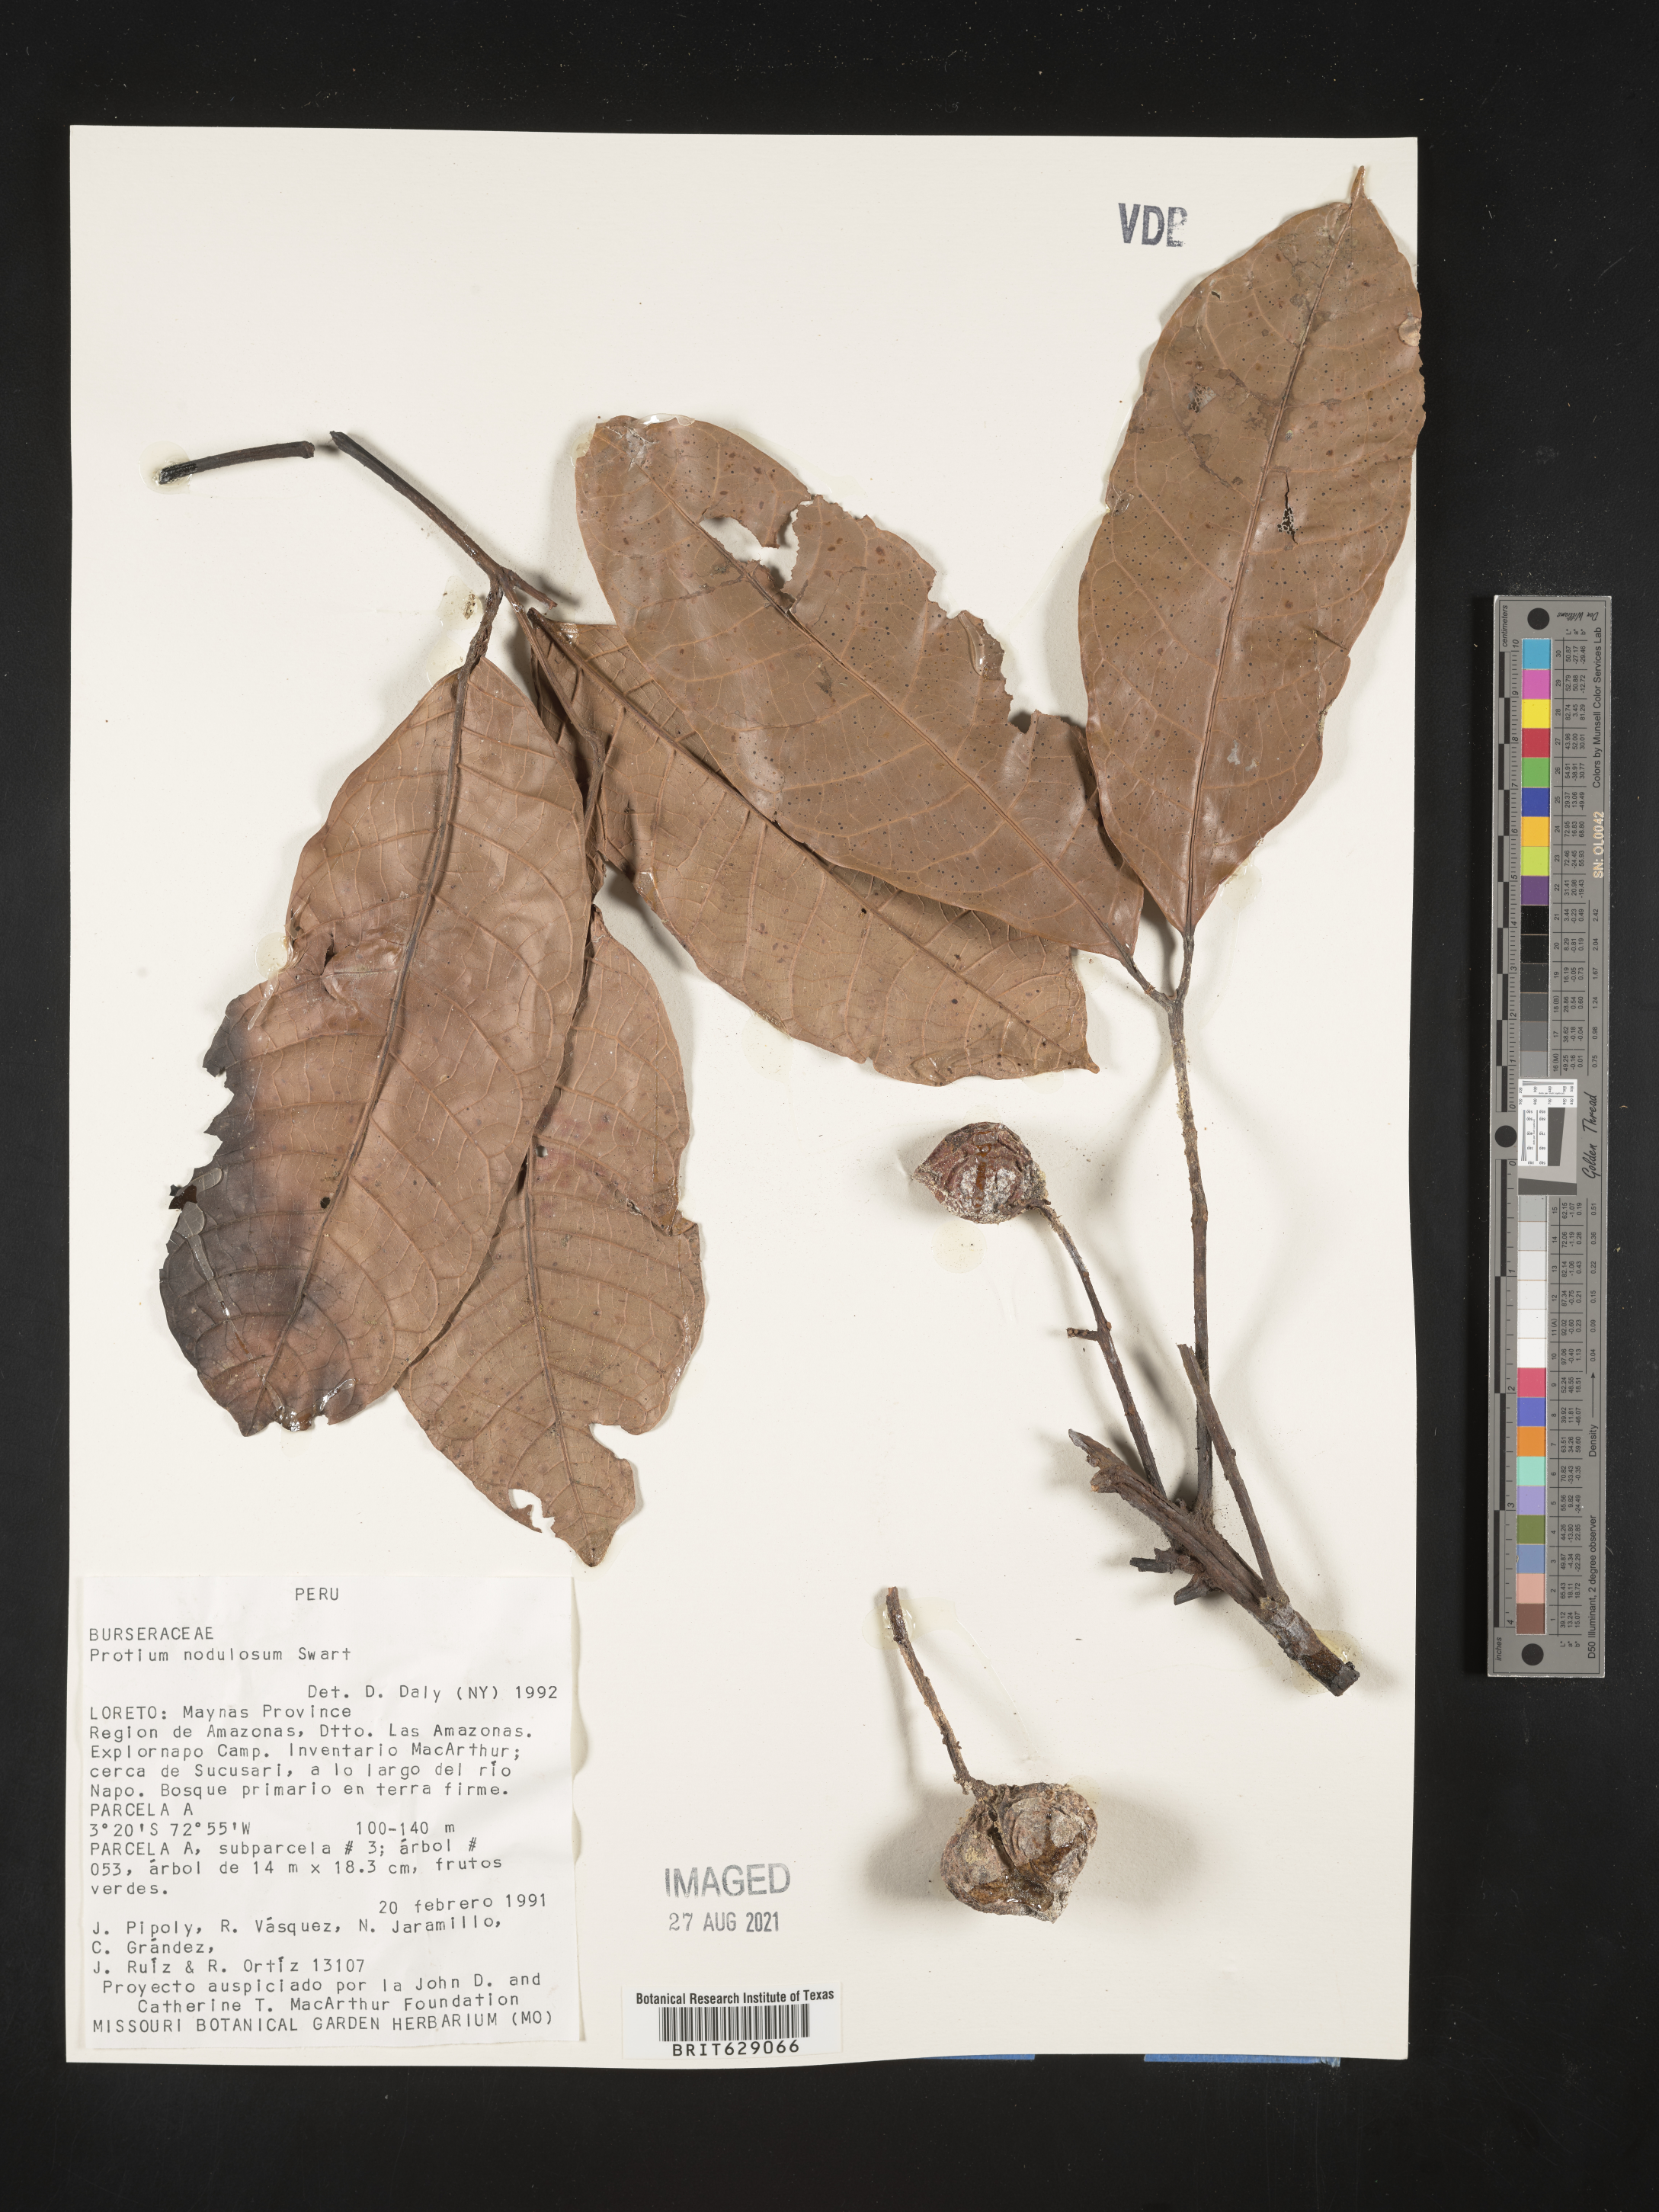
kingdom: Plantae
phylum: Tracheophyta
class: Magnoliopsida
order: Sapindales
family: Burseraceae
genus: Protium
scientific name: Protium nodulosum
